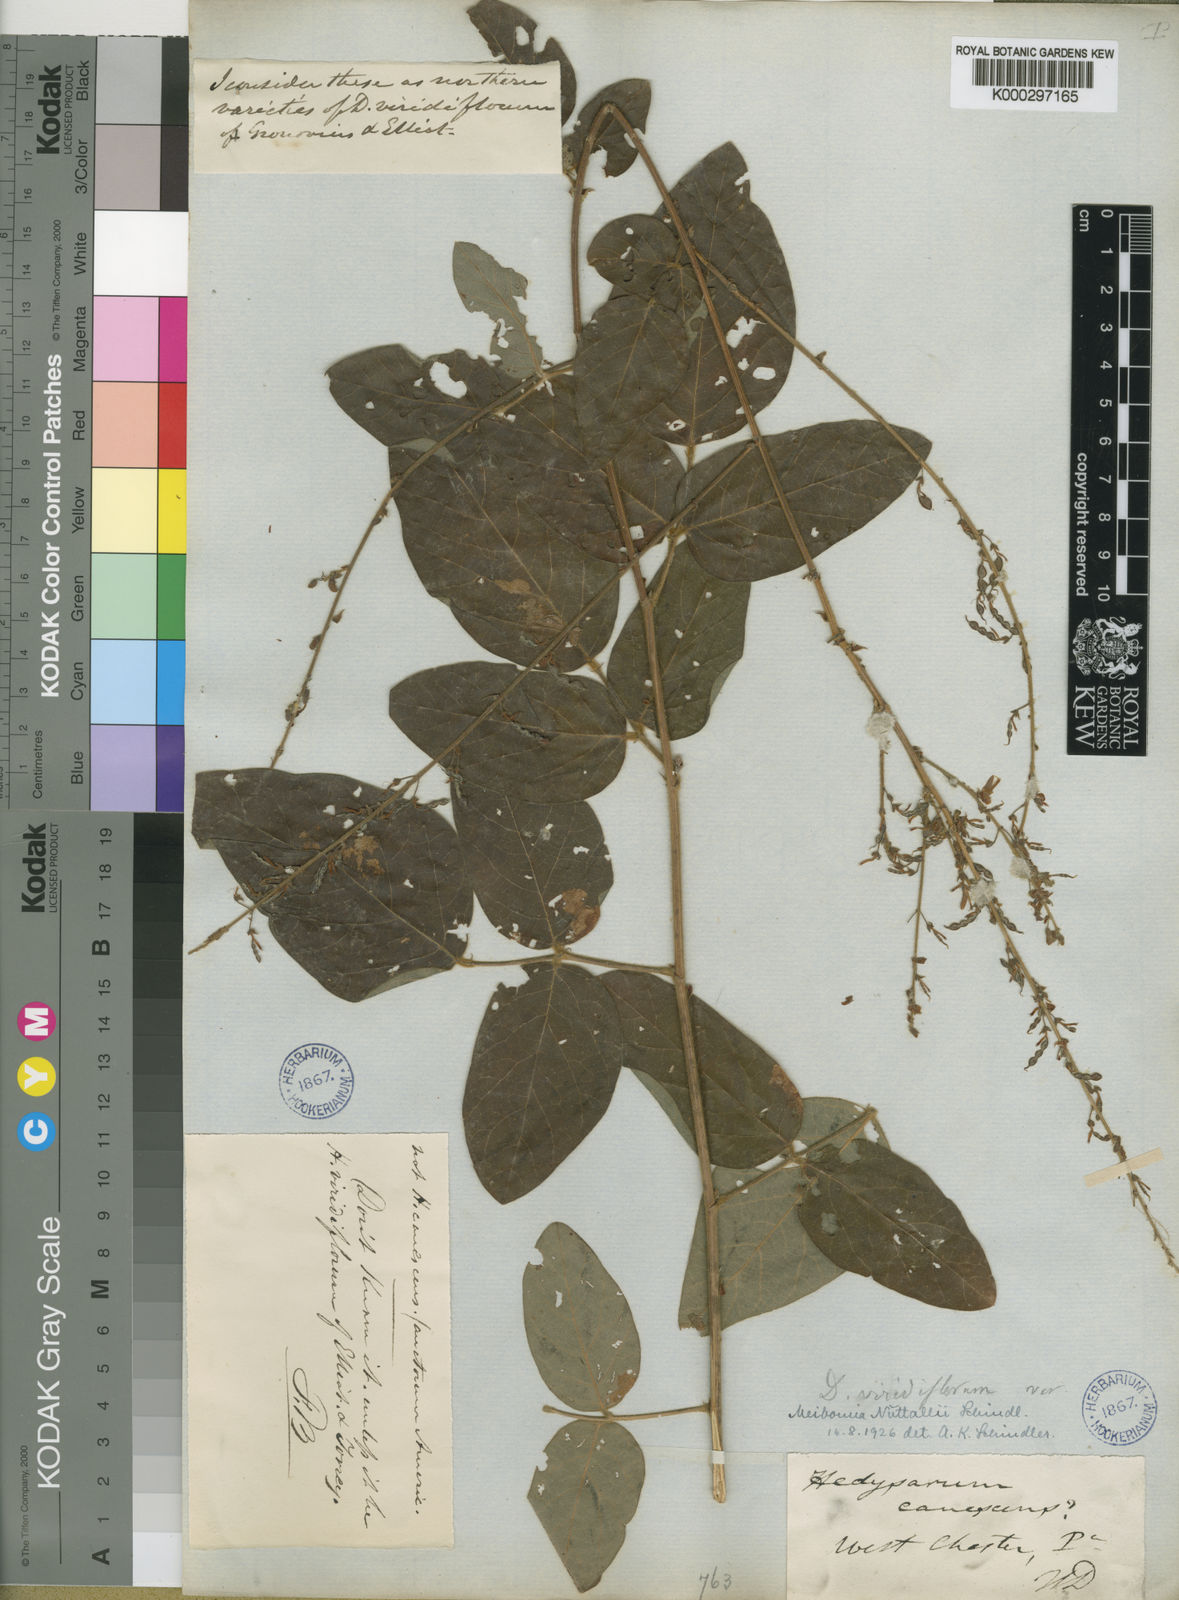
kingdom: Plantae
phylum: Tracheophyta
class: Magnoliopsida
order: Fabales
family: Fabaceae
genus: Desmodium
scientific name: Desmodium nuttallii
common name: Nuttall's tick trefoil
